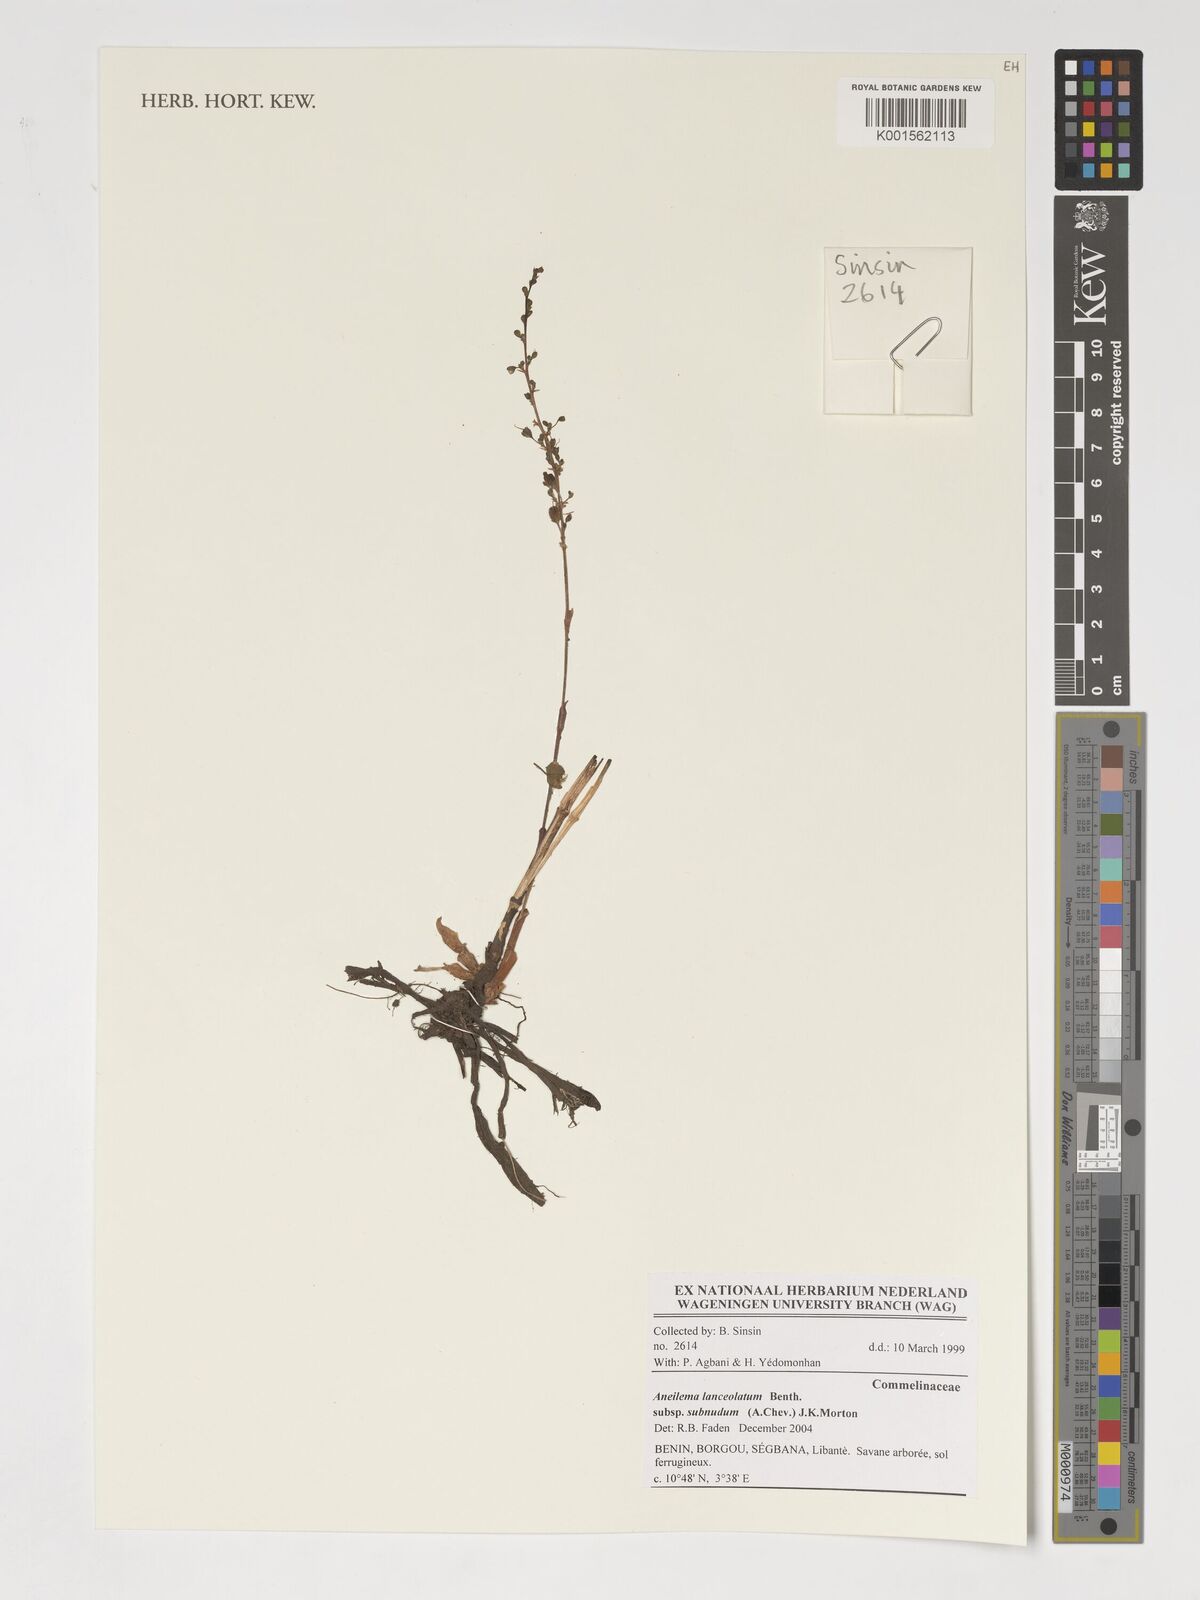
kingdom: Plantae
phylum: Tracheophyta
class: Liliopsida
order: Commelinales
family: Commelinaceae
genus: Aneilema
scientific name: Aneilema lanceolatum
